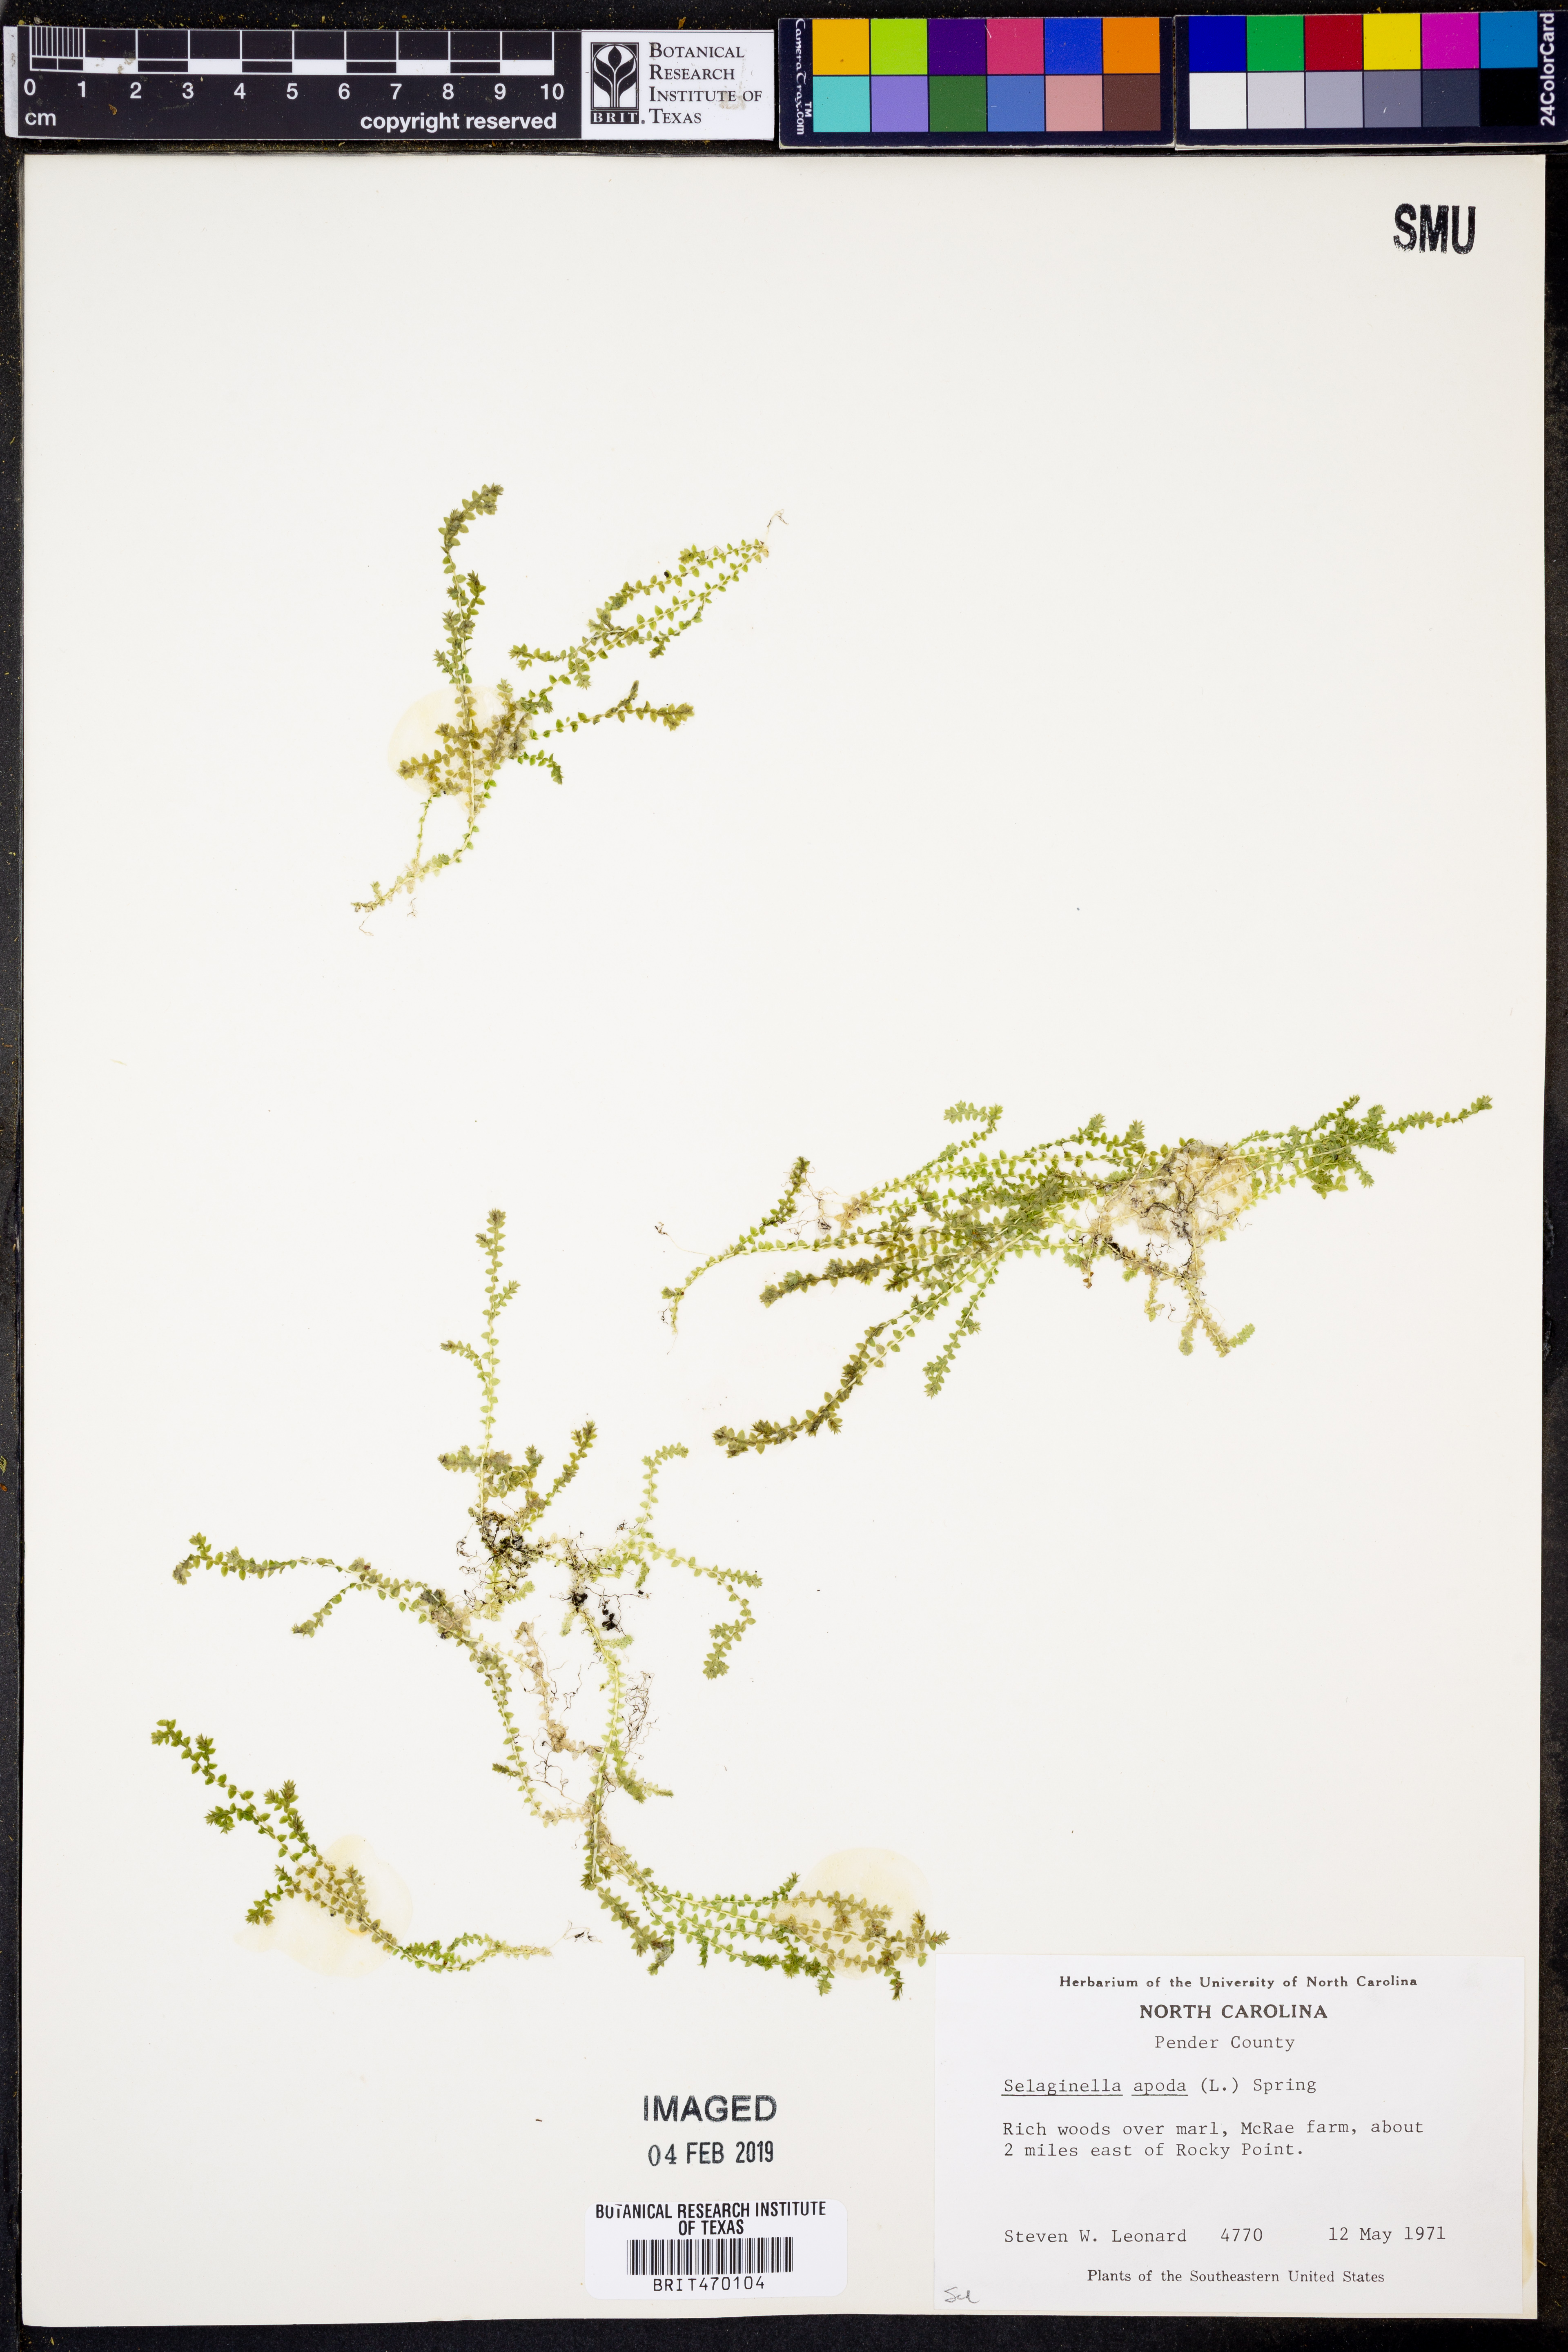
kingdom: Plantae
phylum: Tracheophyta
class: Lycopodiopsida
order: Selaginellales
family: Selaginellaceae
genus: Selaginella
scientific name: Selaginella apoda
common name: Creeping spikemoss
